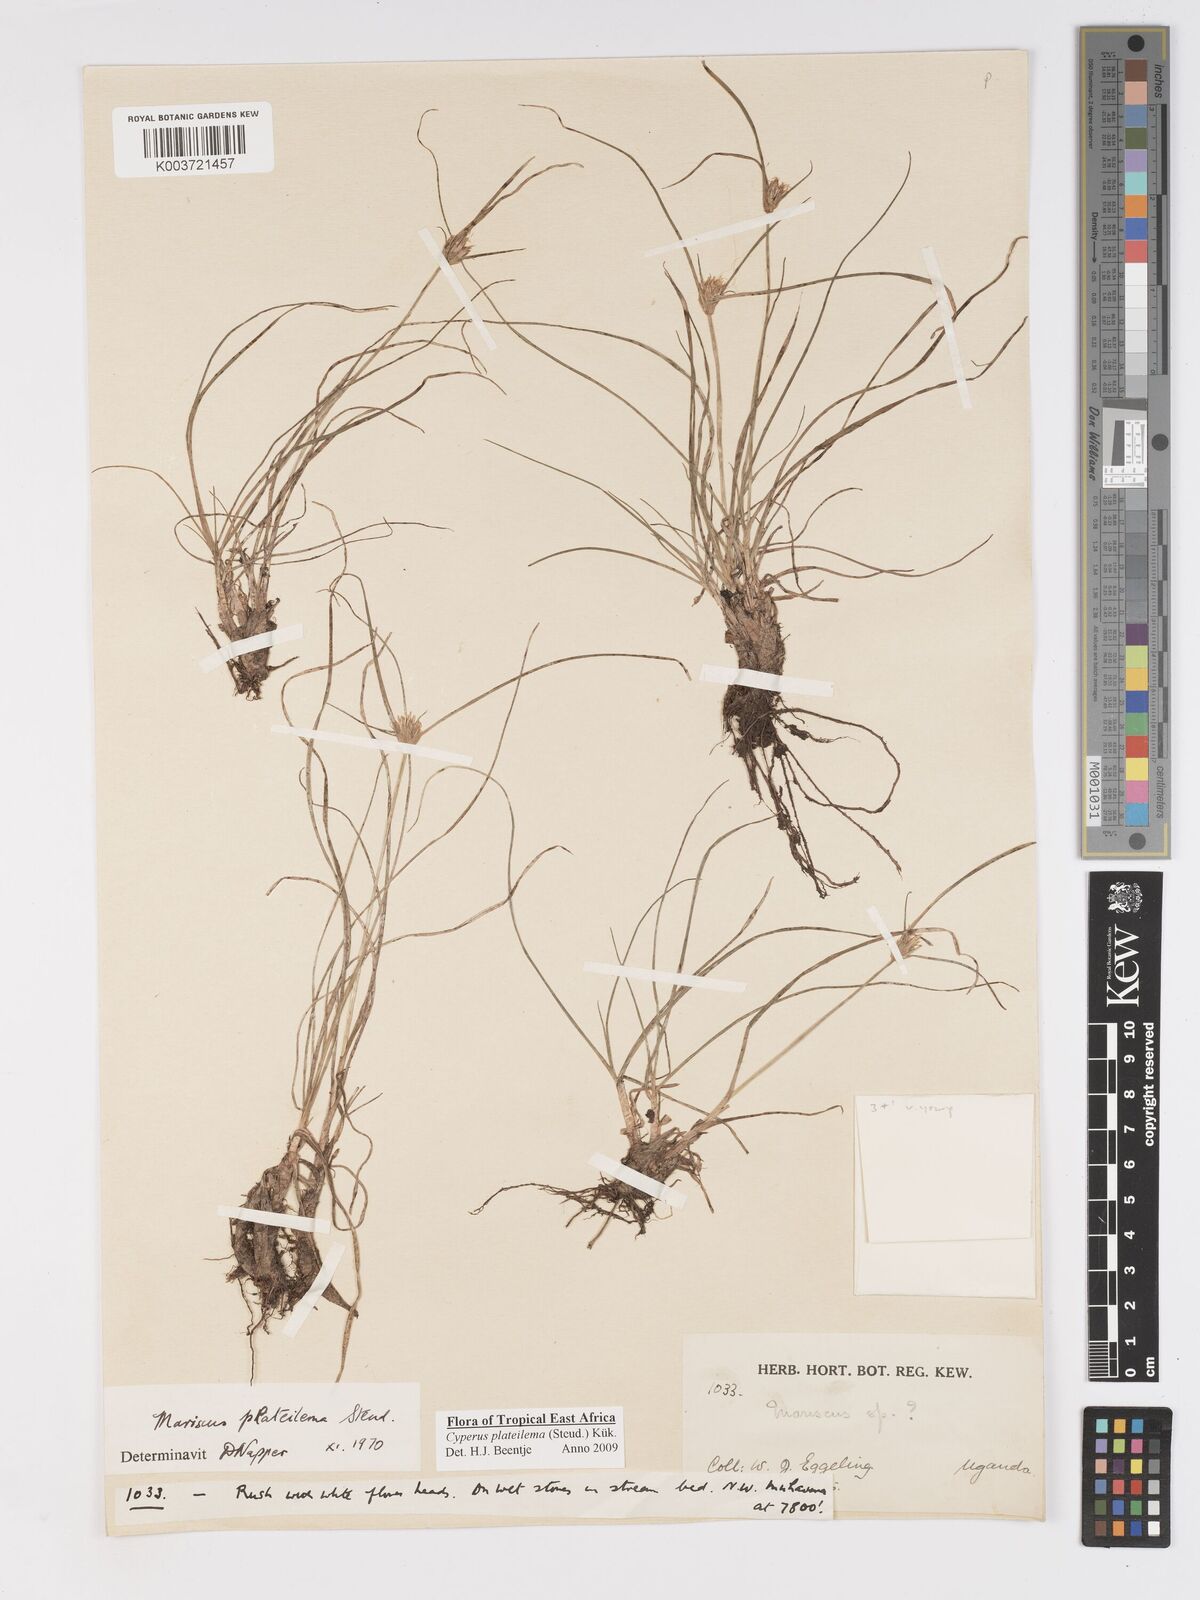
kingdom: Plantae
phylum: Tracheophyta
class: Liliopsida
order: Poales
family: Cyperaceae
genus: Cyperus
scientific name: Cyperus plateilema
